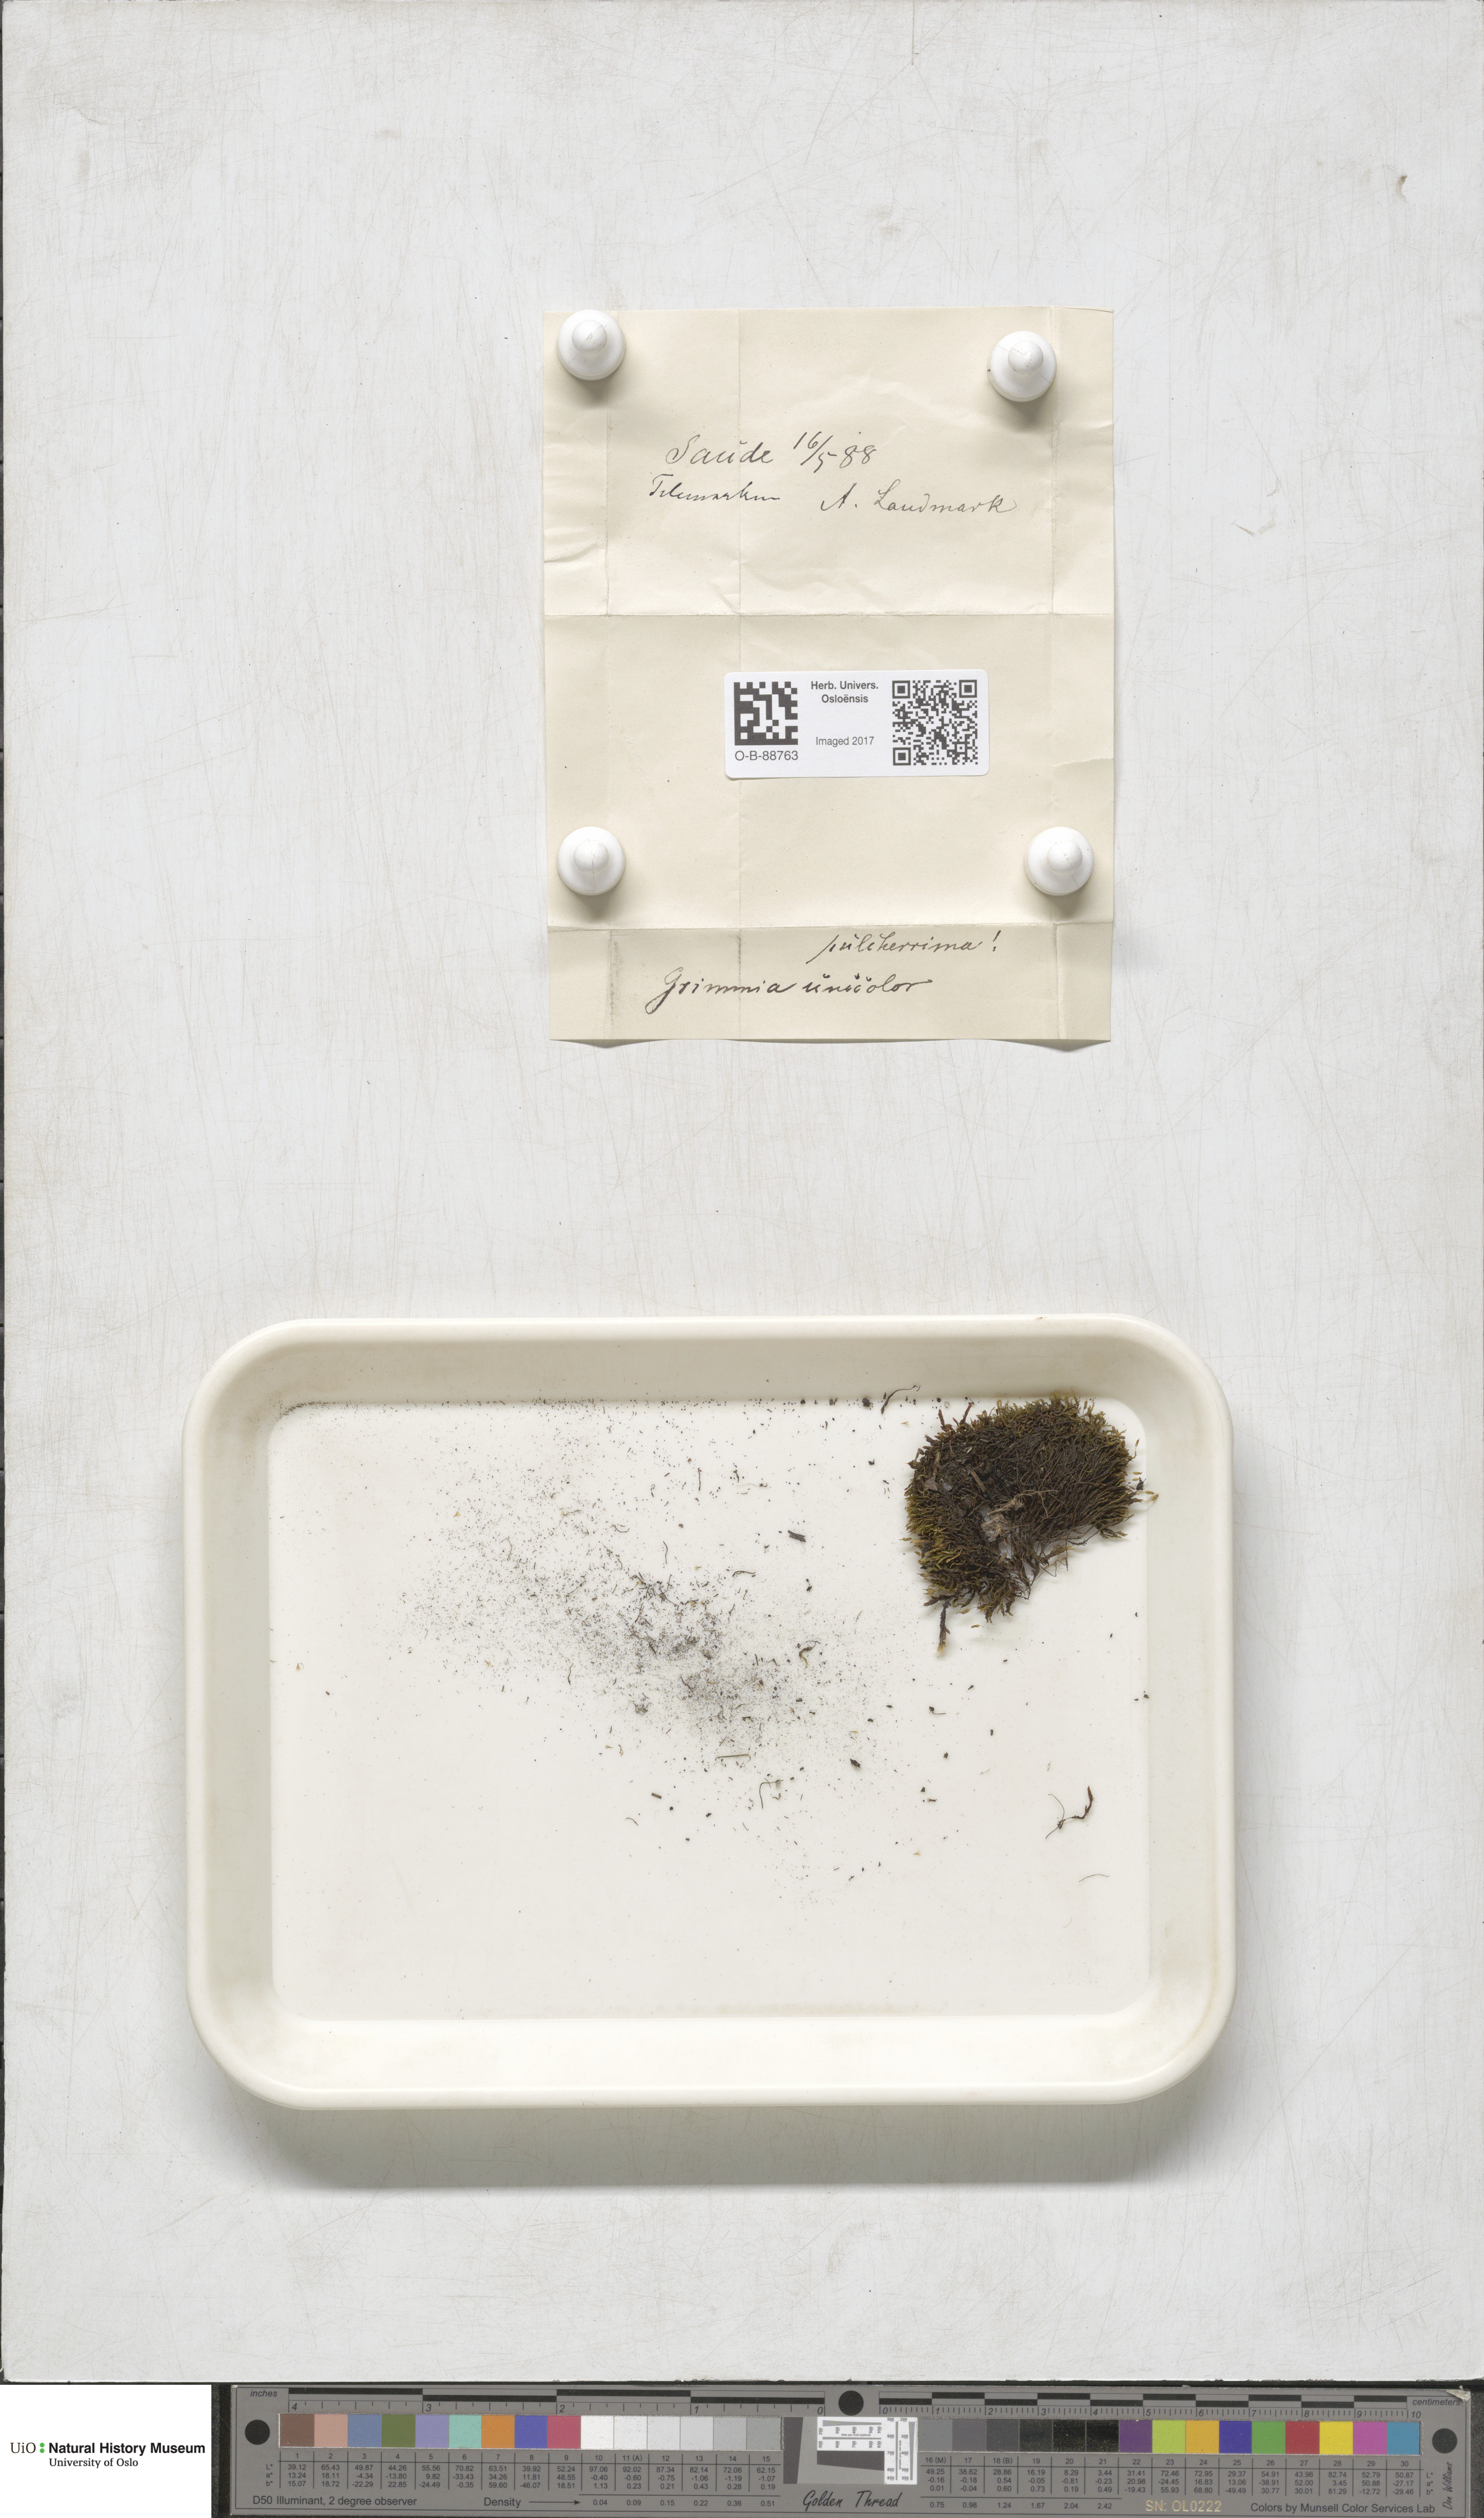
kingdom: Plantae
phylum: Bryophyta
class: Bryopsida
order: Grimmiales
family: Grimmiaceae
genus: Grimmia
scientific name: Grimmia unicolor
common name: Dingy grimmia
